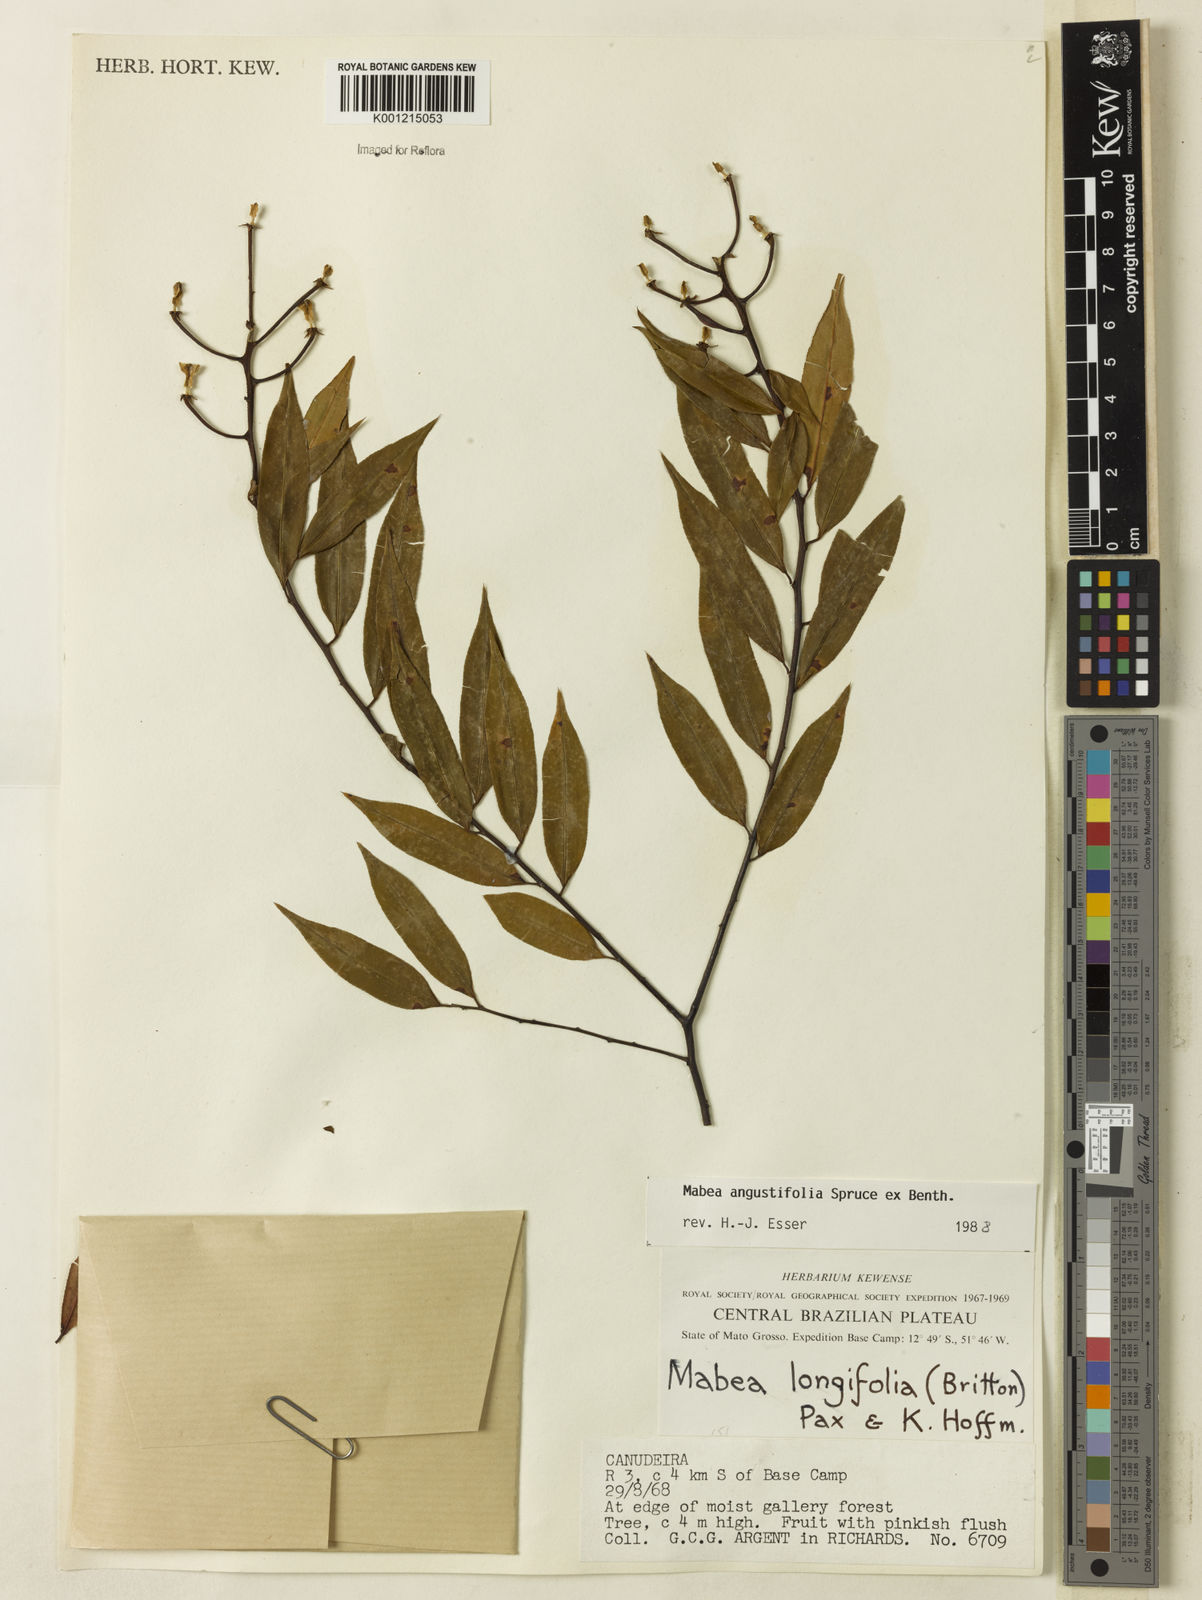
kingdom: Plantae
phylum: Tracheophyta
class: Magnoliopsida
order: Malpighiales
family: Euphorbiaceae
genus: Mabea
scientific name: Mabea angustifolia
